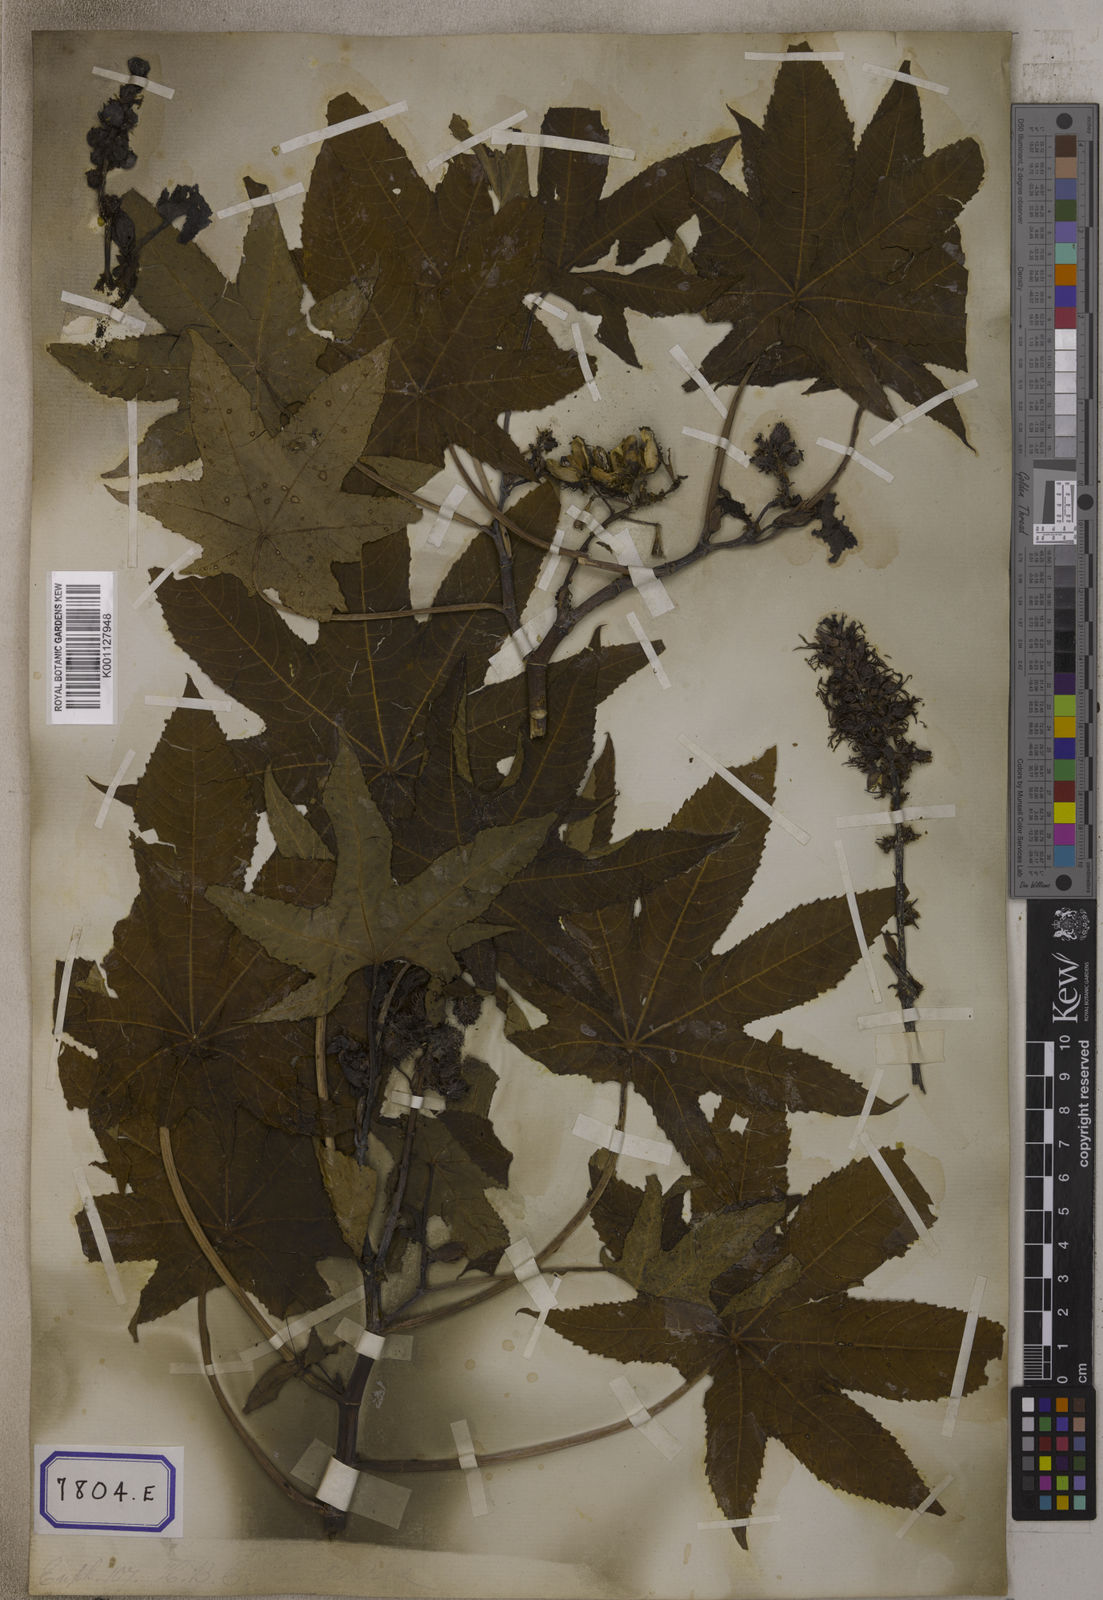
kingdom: Plantae
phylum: Tracheophyta
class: Magnoliopsida
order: Malpighiales
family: Euphorbiaceae
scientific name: Euphorbiaceae
